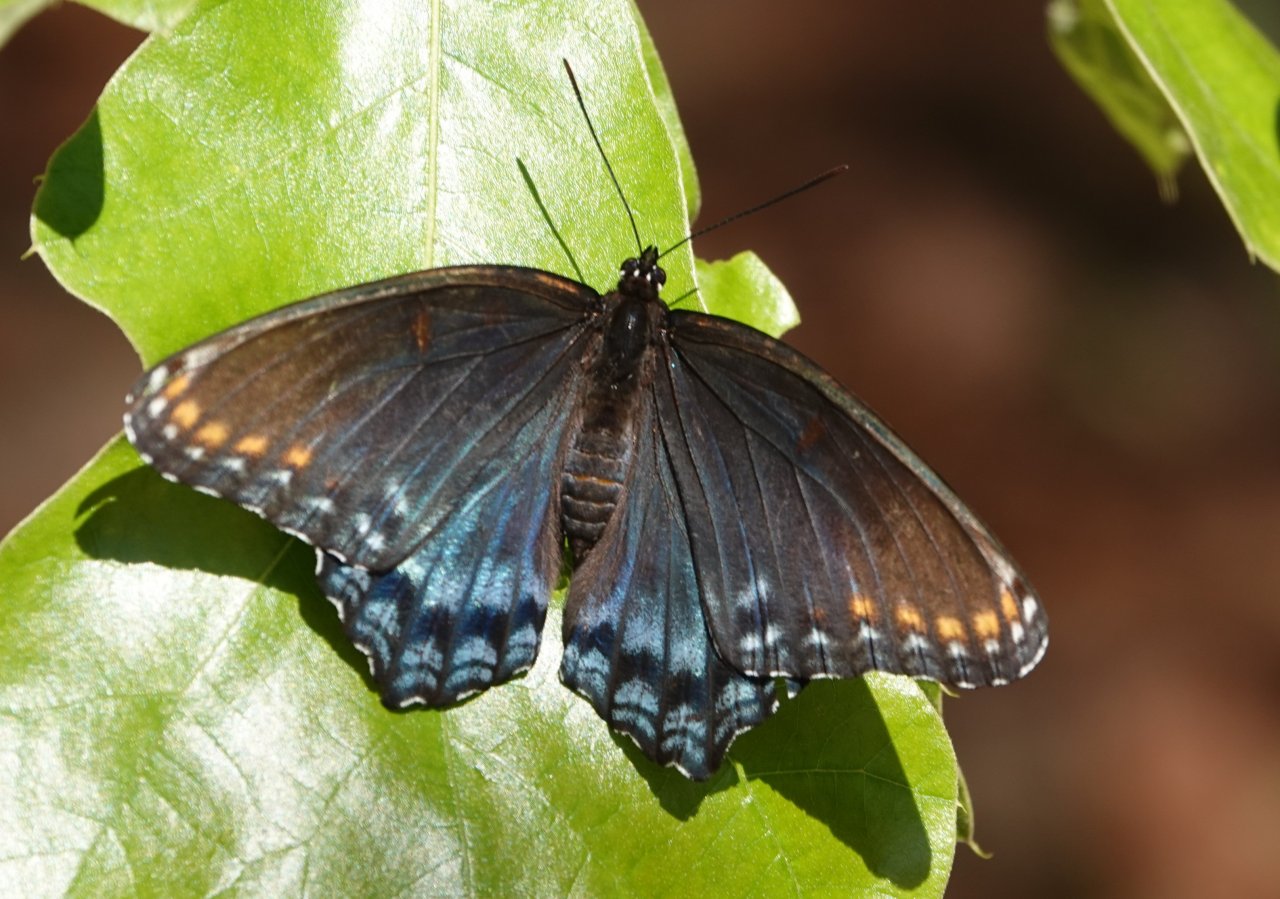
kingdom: Animalia
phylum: Arthropoda
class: Insecta
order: Lepidoptera
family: Nymphalidae
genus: Limenitis
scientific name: Limenitis astyanax
